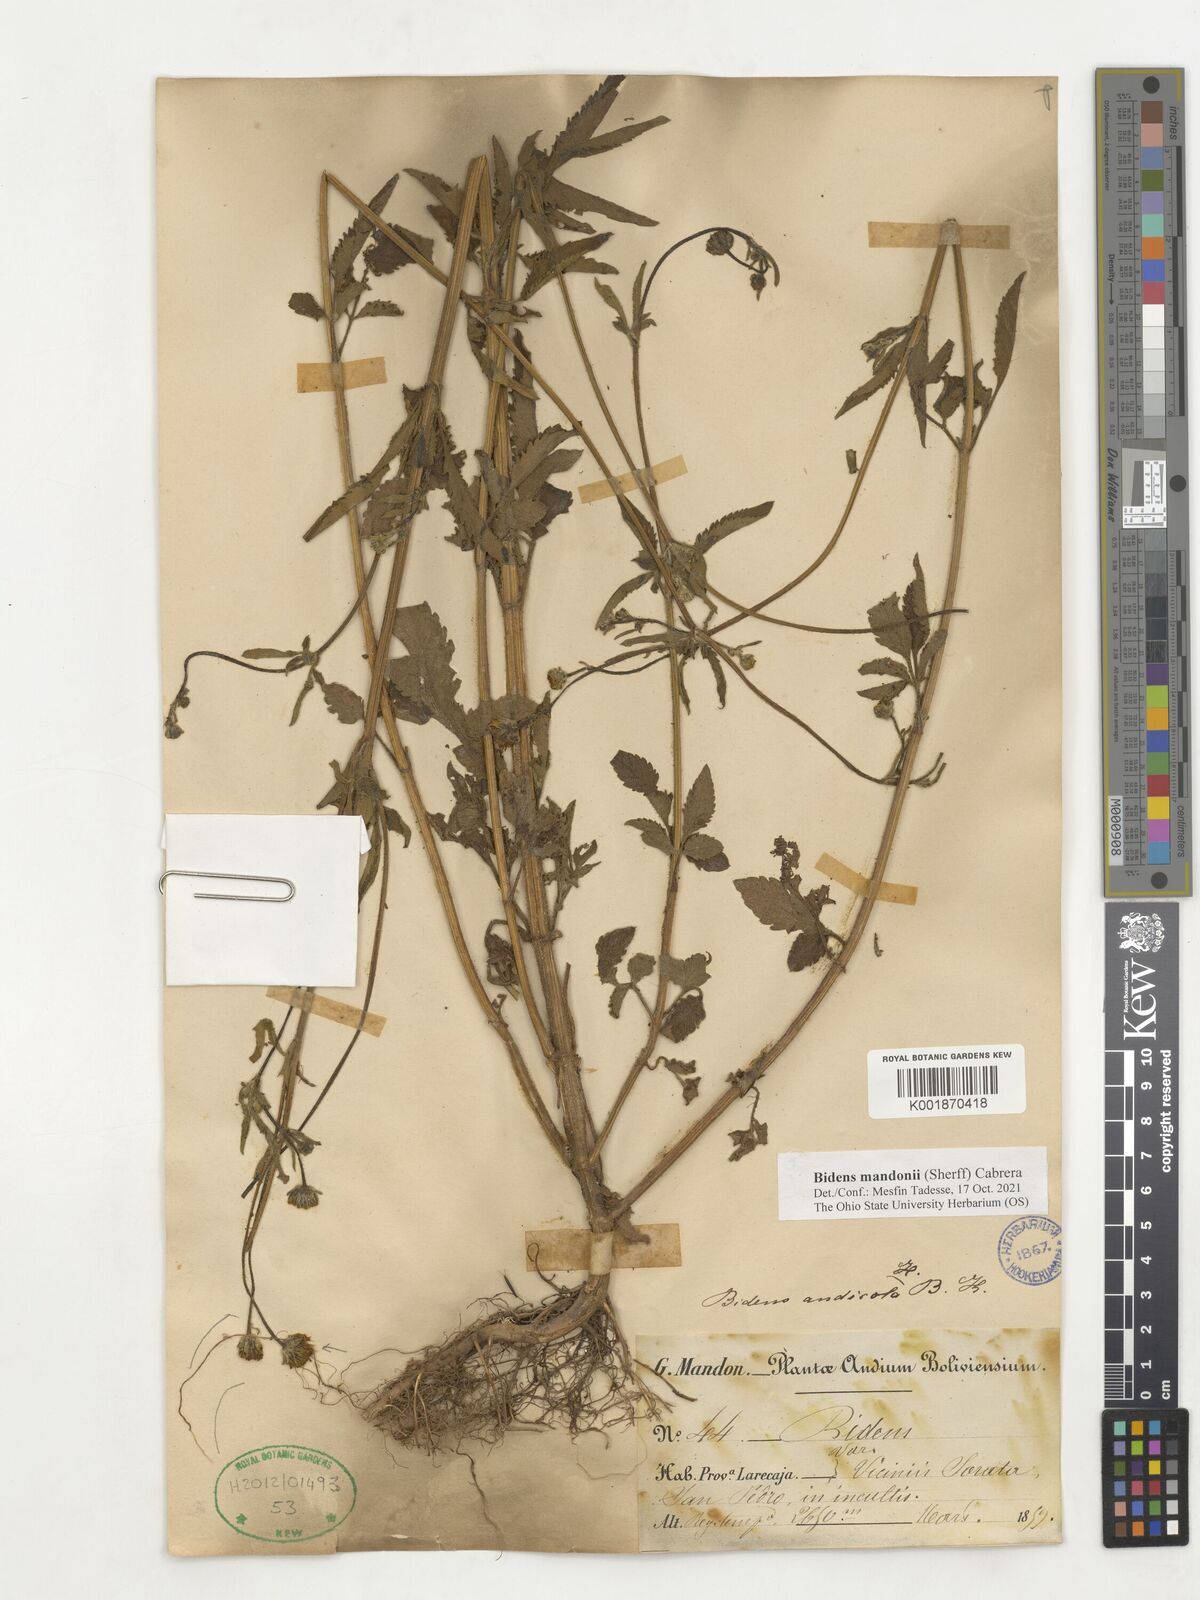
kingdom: Plantae
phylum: Tracheophyta
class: Magnoliopsida
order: Asterales
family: Asteraceae
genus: Bidens
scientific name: Bidens mandonii
